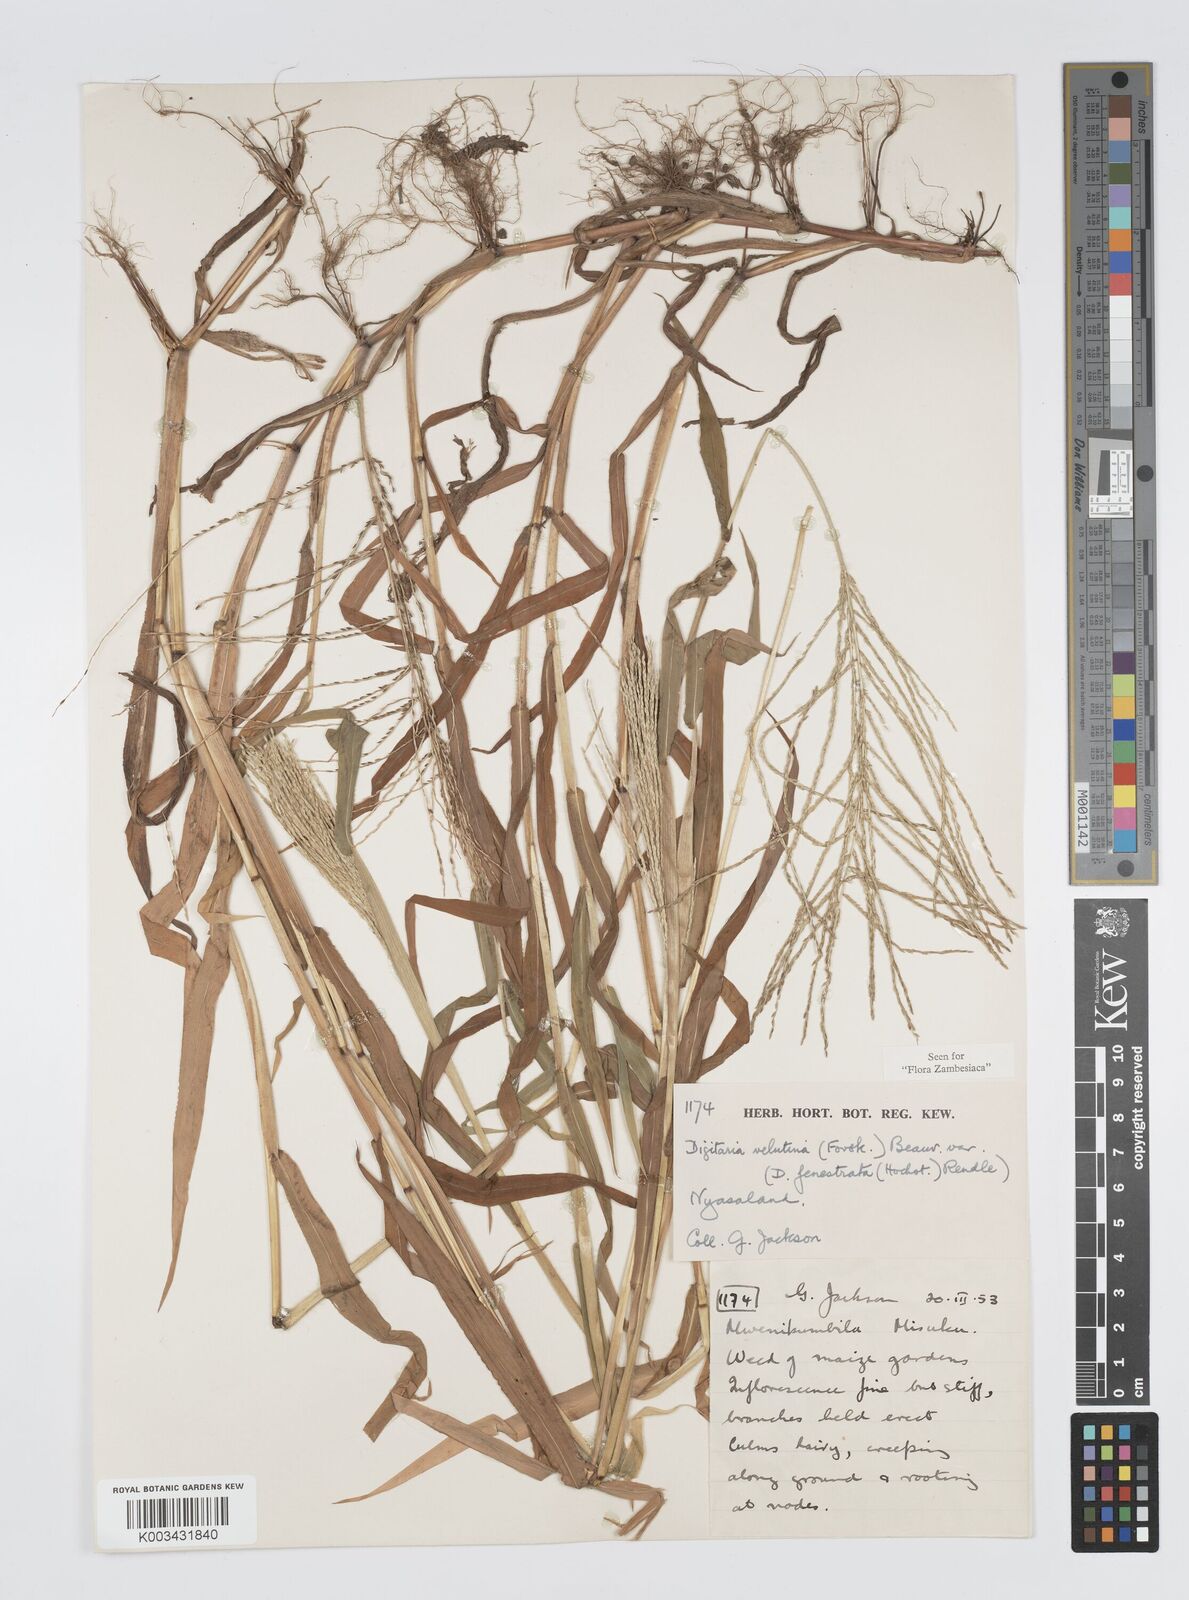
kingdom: Plantae
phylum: Tracheophyta
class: Liliopsida
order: Poales
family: Poaceae
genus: Digitaria
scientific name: Digitaria velutina
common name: Long-plume finger grass
